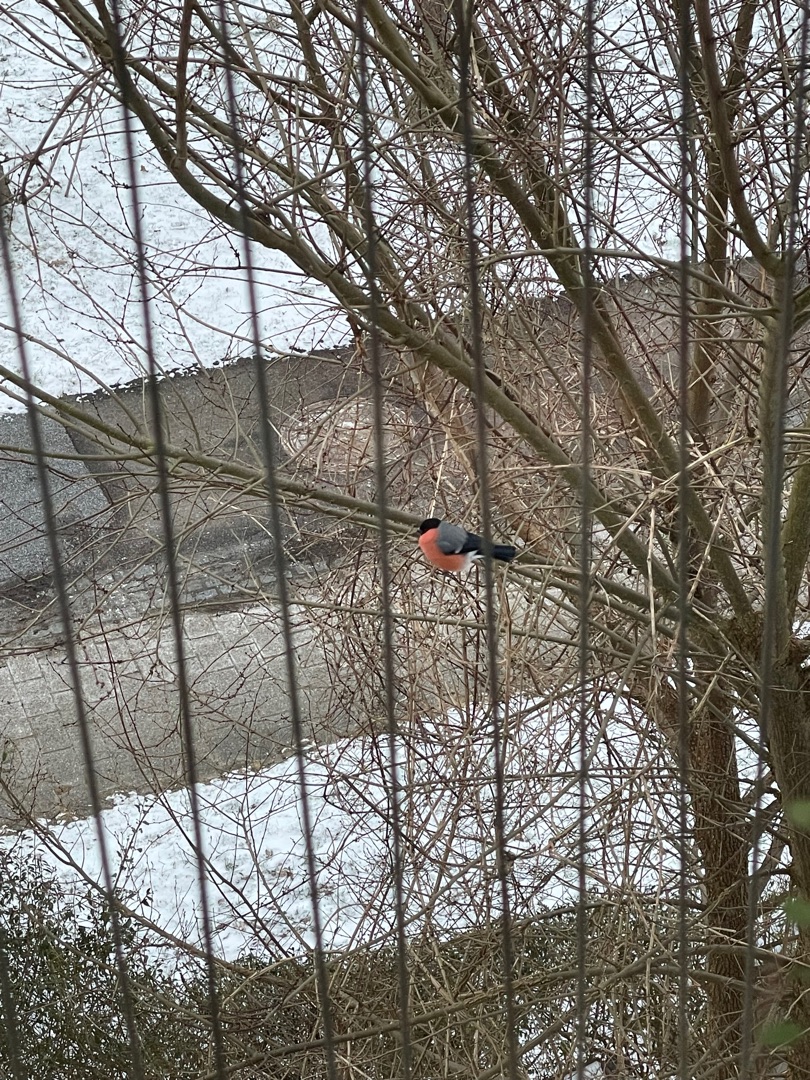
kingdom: Animalia
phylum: Chordata
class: Aves
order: Passeriformes
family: Fringillidae
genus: Pyrrhula
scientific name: Pyrrhula pyrrhula
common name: Dompap
